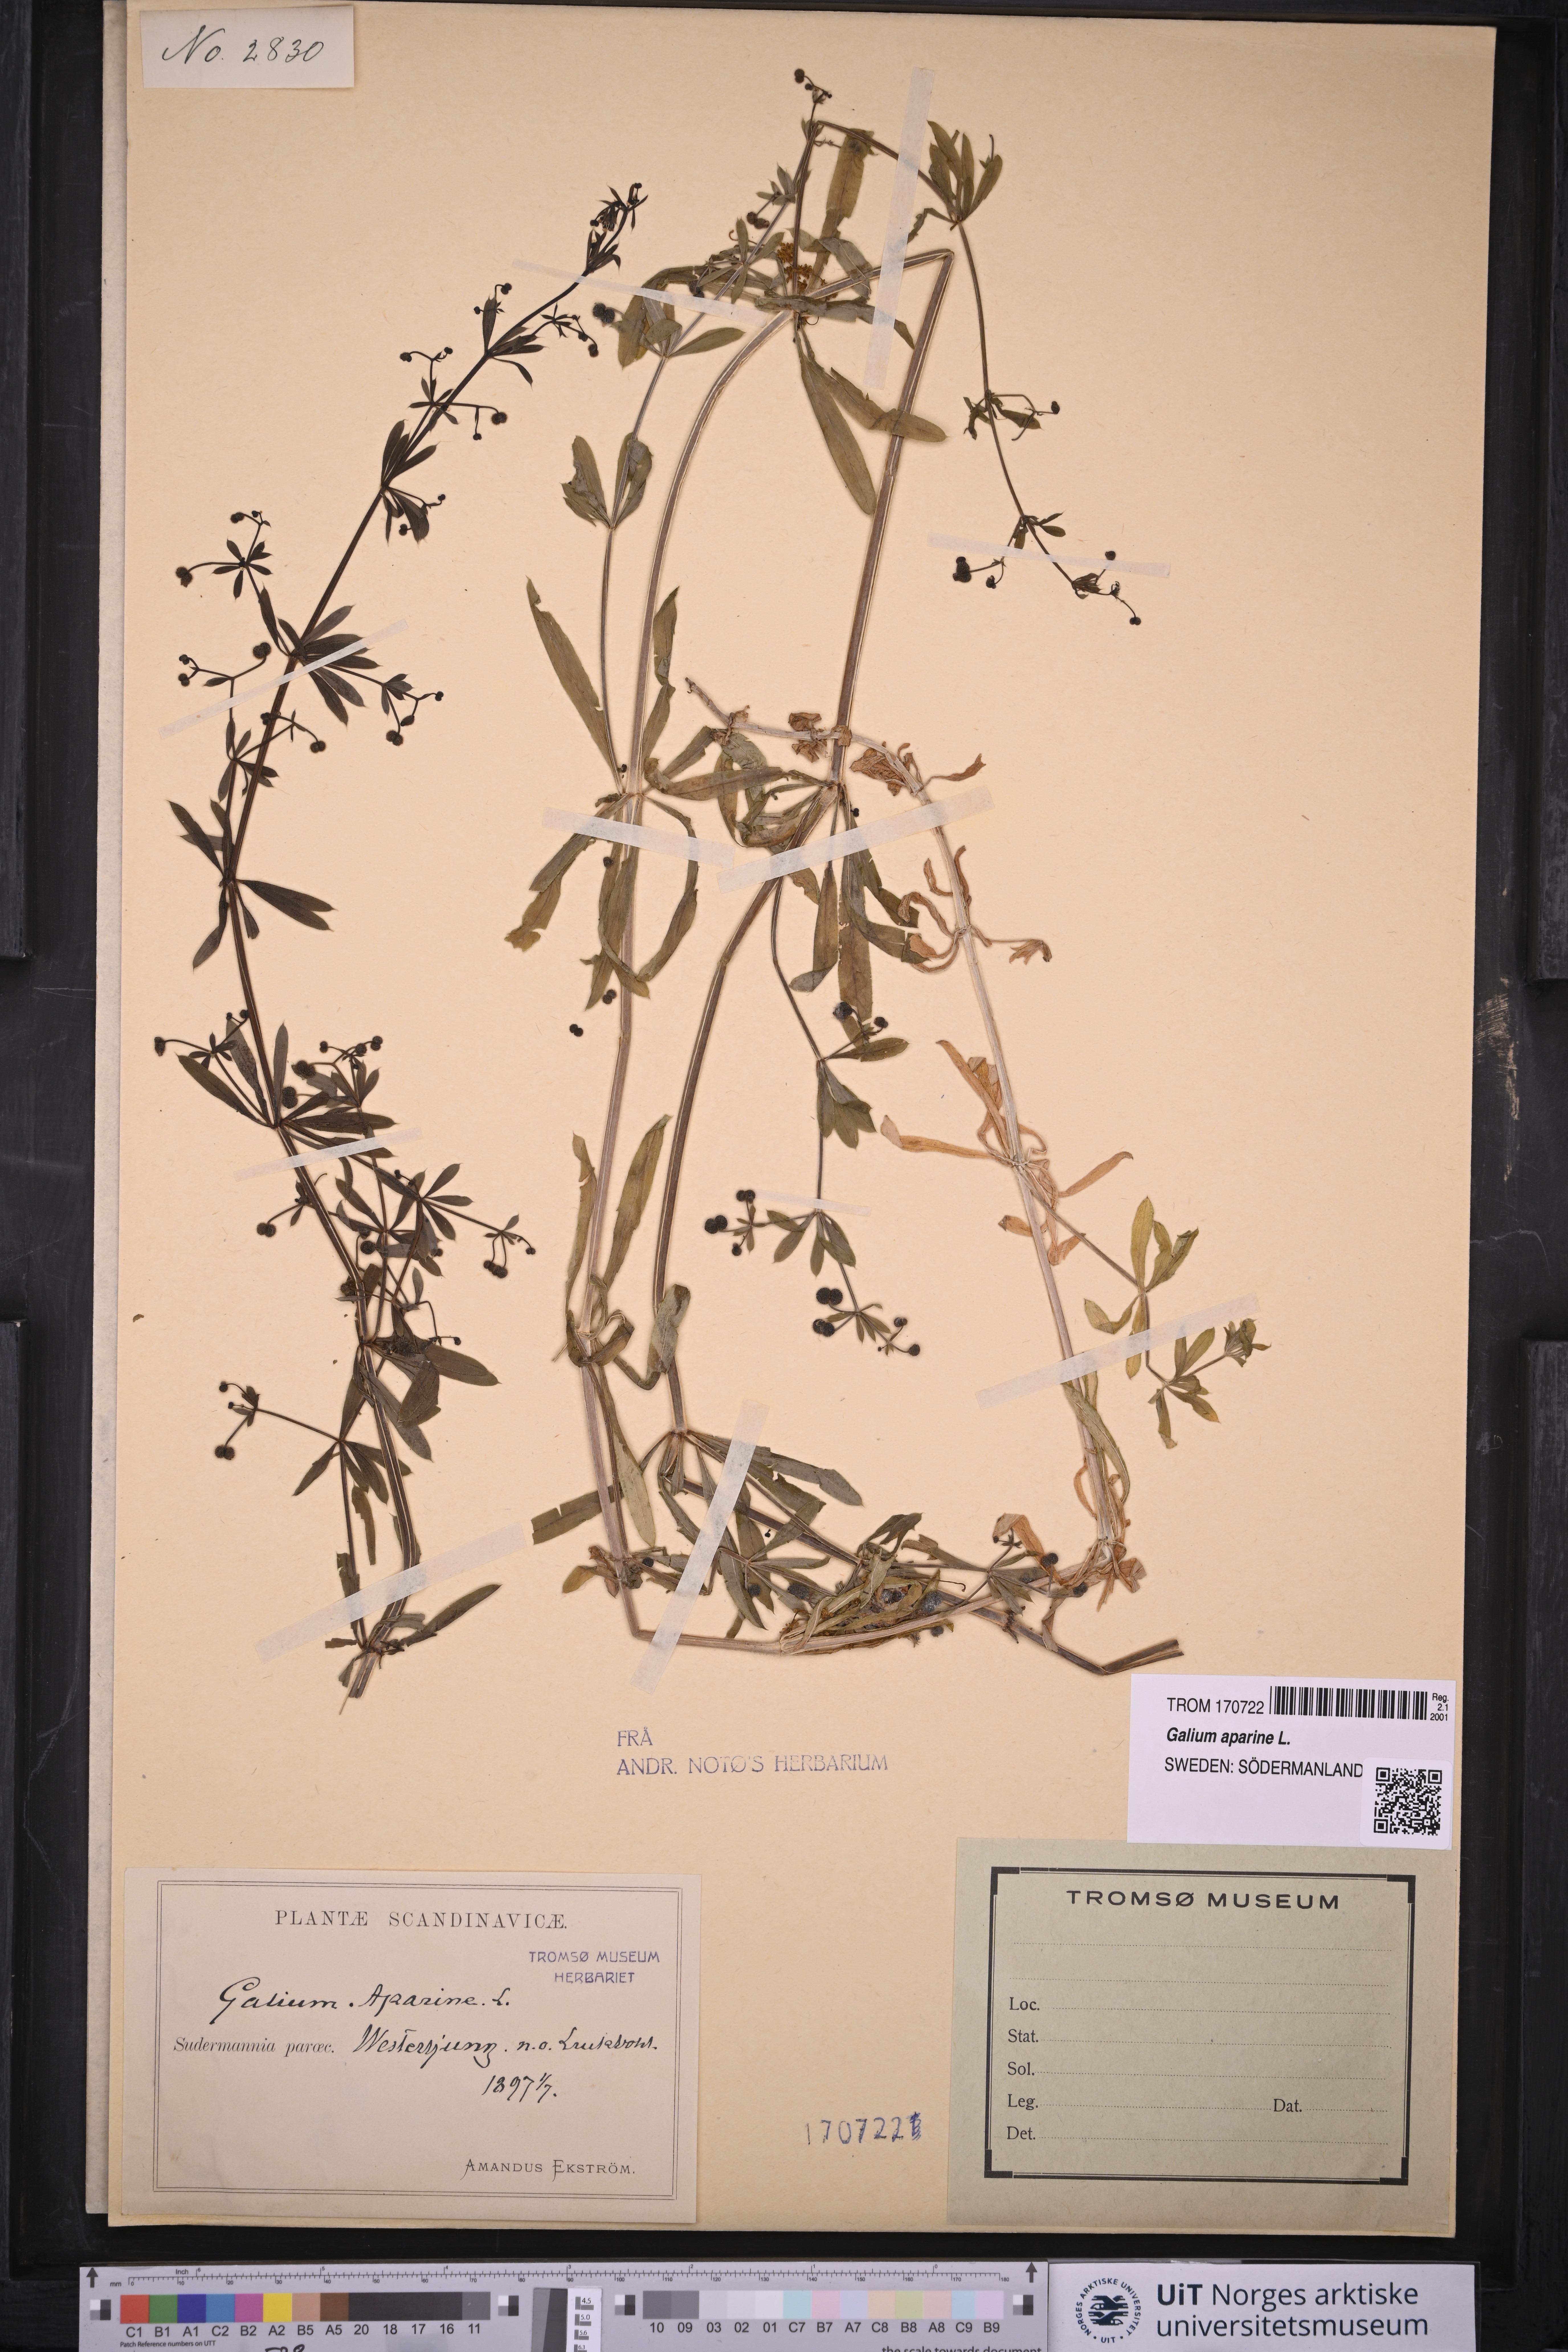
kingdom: Plantae
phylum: Tracheophyta
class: Magnoliopsida
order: Gentianales
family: Rubiaceae
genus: Galium
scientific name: Galium aparine
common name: Cleavers
